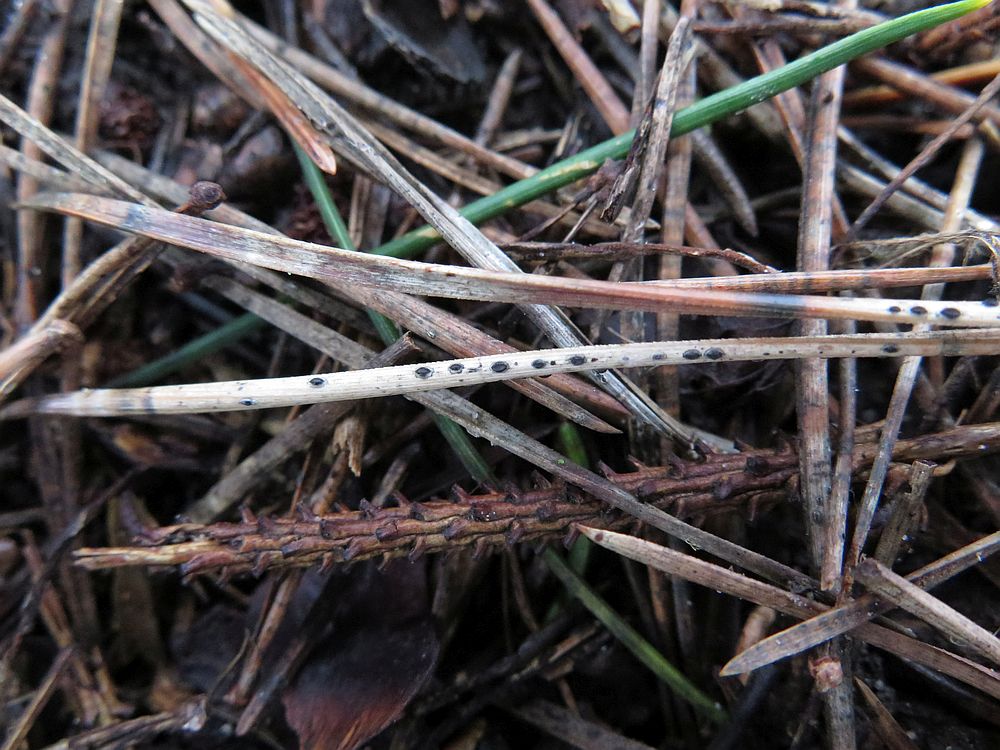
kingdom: Fungi
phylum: Ascomycota
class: Leotiomycetes
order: Rhytismatales
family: Rhytismataceae
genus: Lophodermium
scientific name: Lophodermium pinastri
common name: fyrre-fureplet
